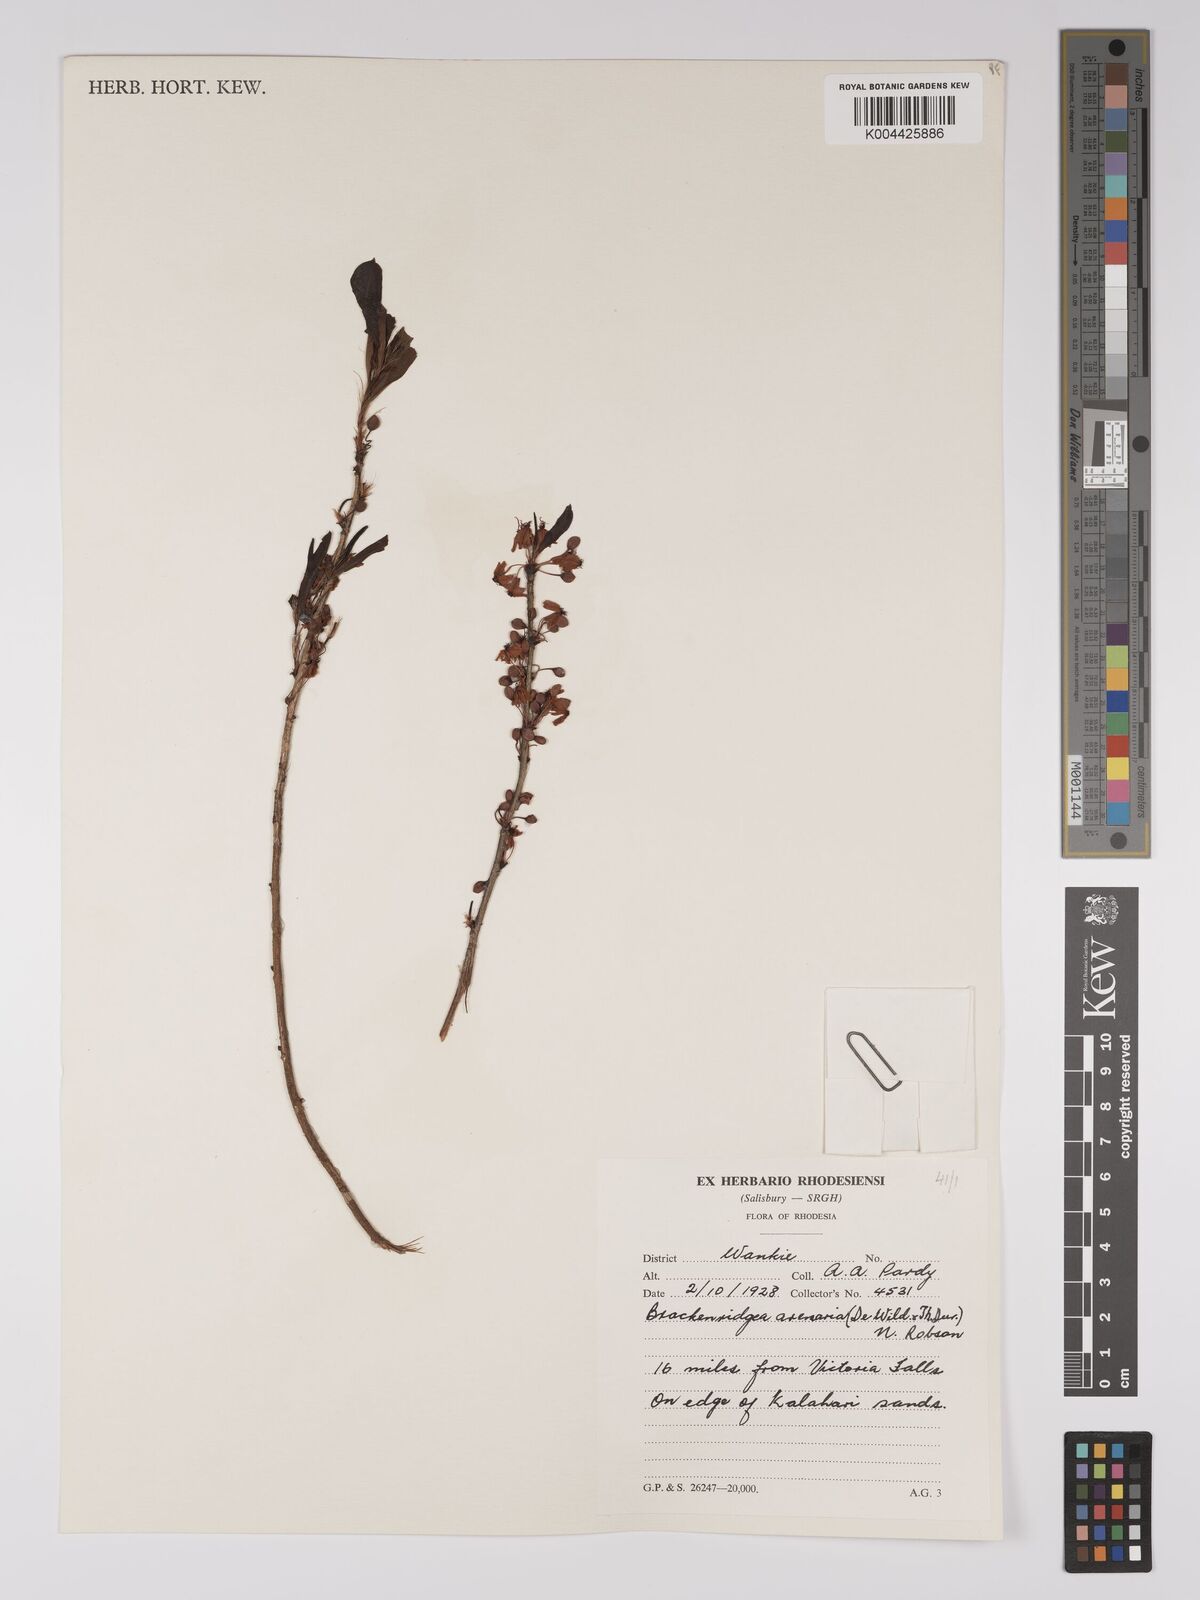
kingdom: Plantae
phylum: Tracheophyta
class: Magnoliopsida
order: Malpighiales
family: Ochnaceae
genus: Ochna
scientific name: Ochna arenaria
